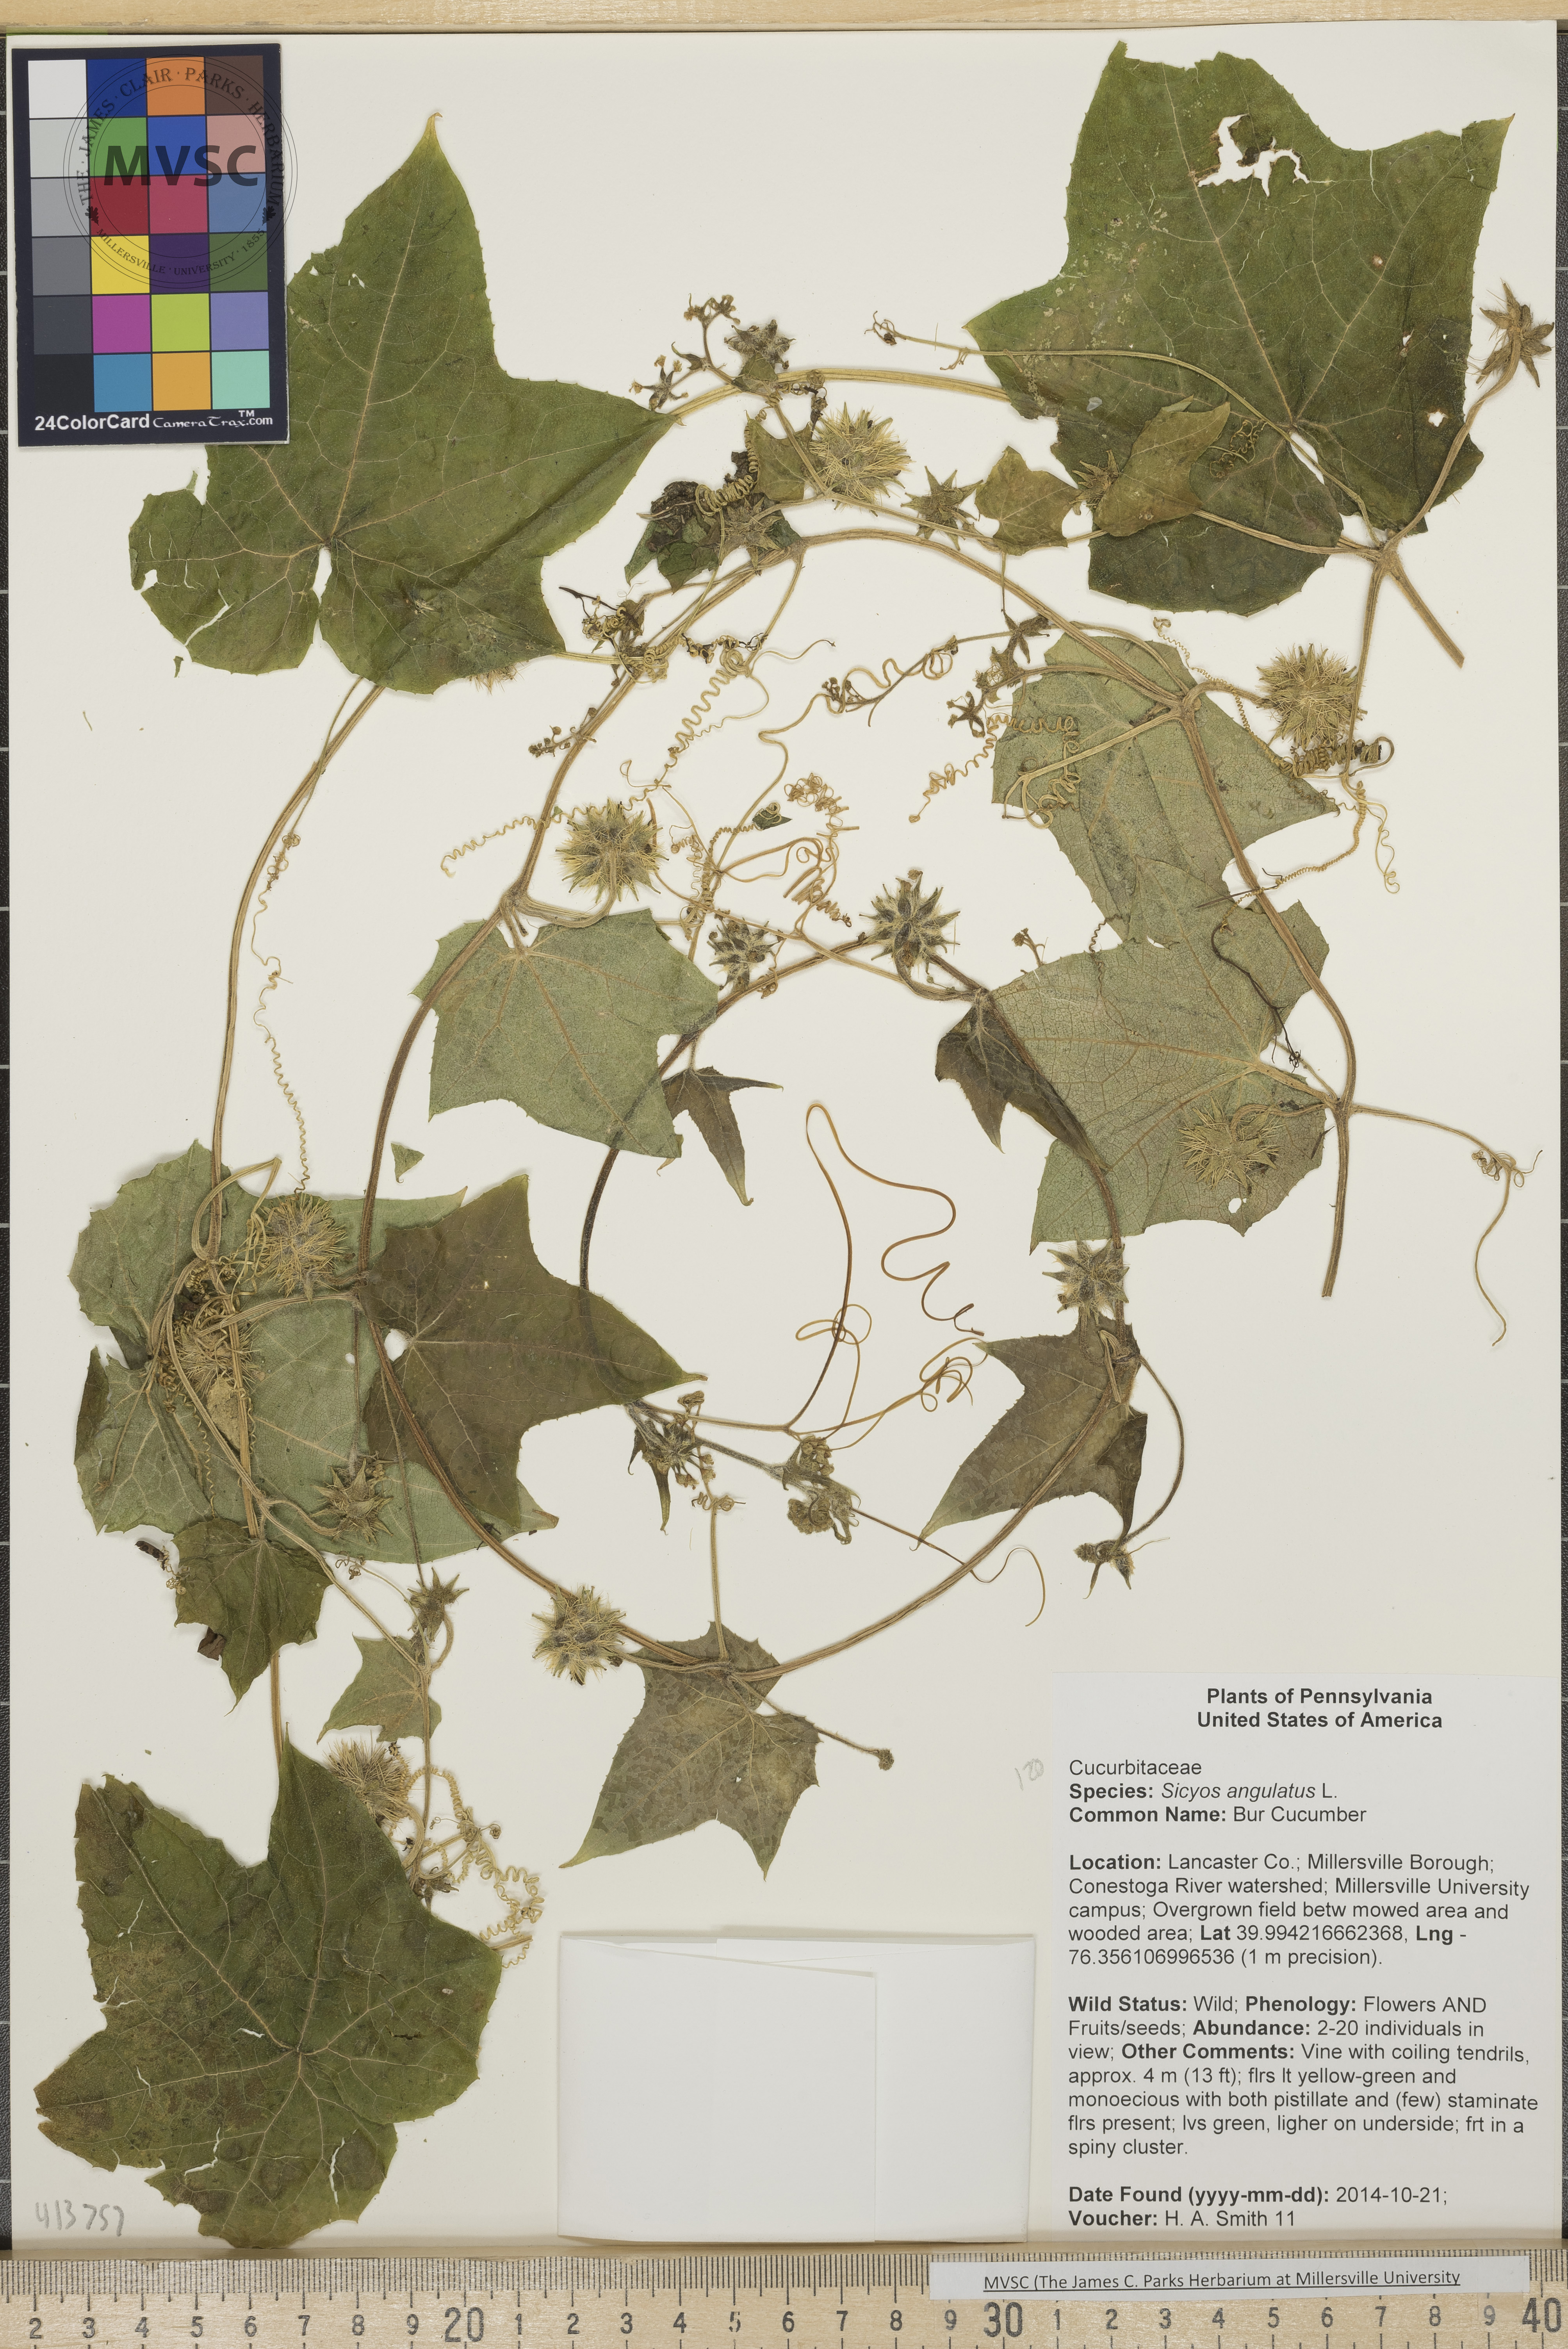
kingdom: Plantae
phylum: Tracheophyta
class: Magnoliopsida
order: Cucurbitales
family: Cucurbitaceae
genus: Sicyos
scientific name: Sicyos angulatus
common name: Bur Cucumber
